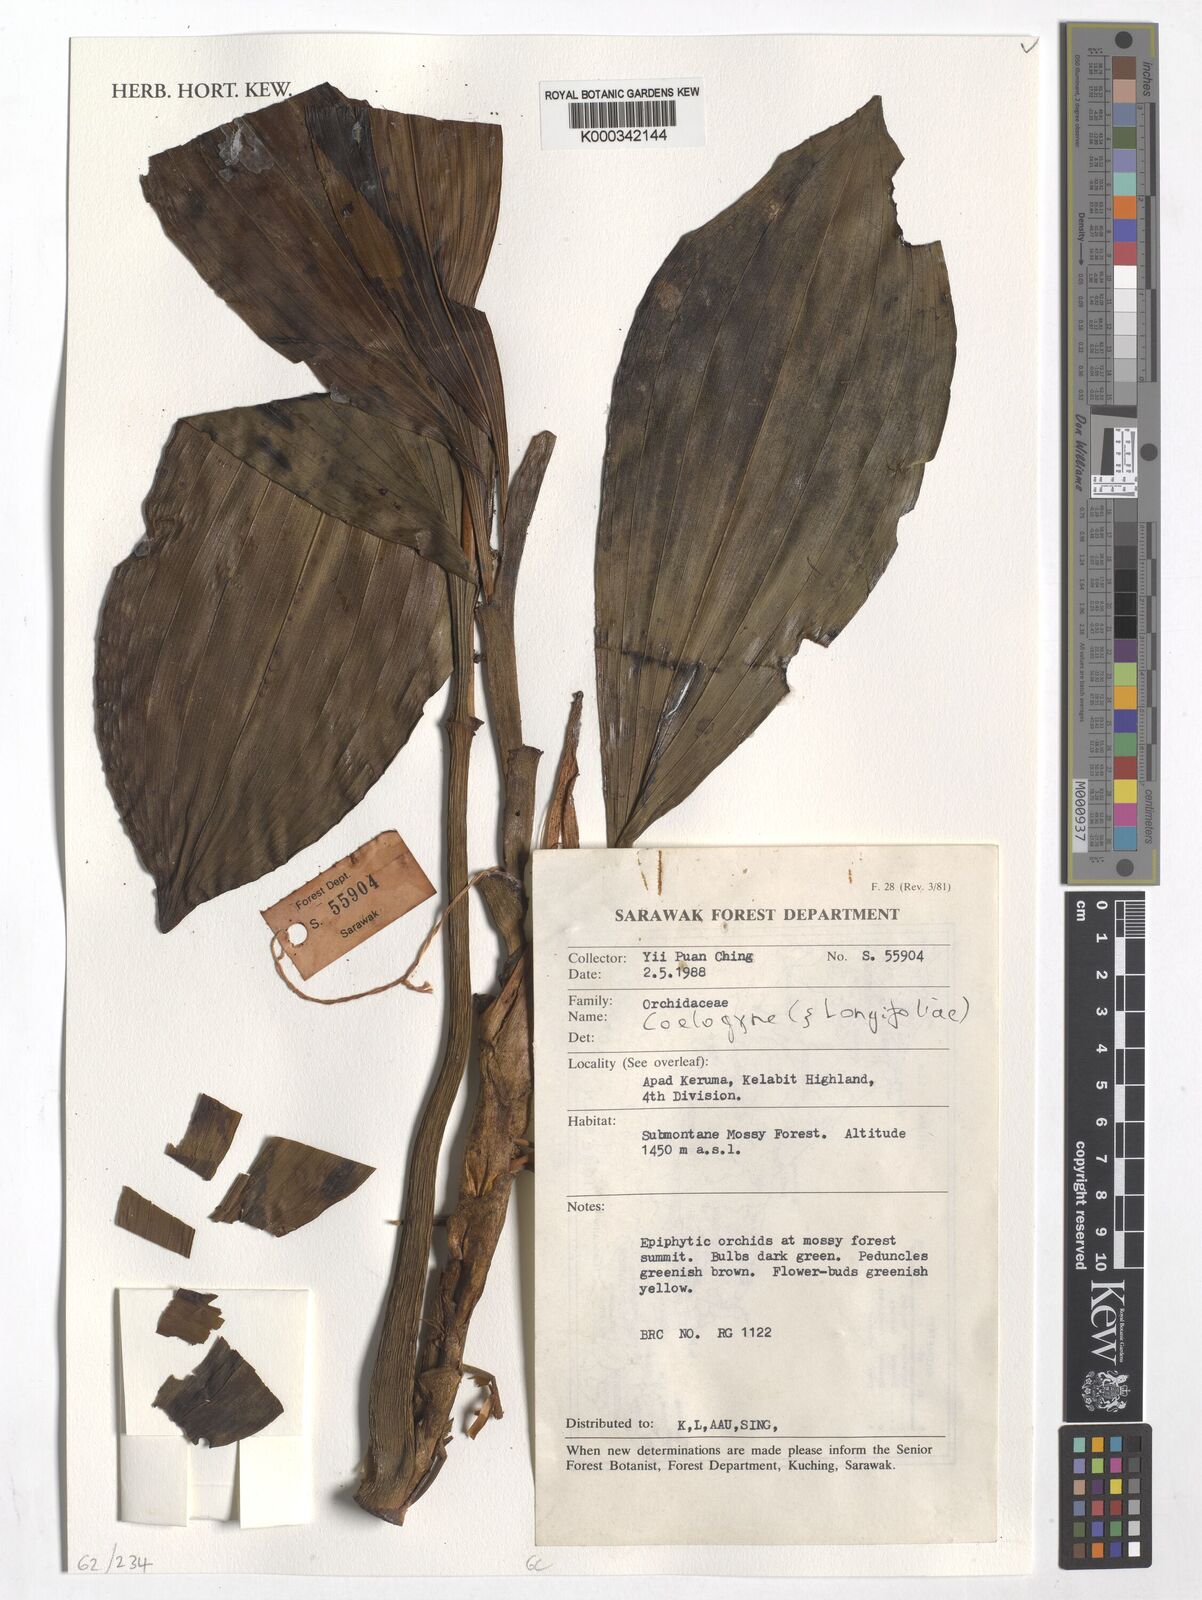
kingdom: Plantae
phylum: Tracheophyta
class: Liliopsida
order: Asparagales
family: Orchidaceae
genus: Coelogyne
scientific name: Coelogyne
